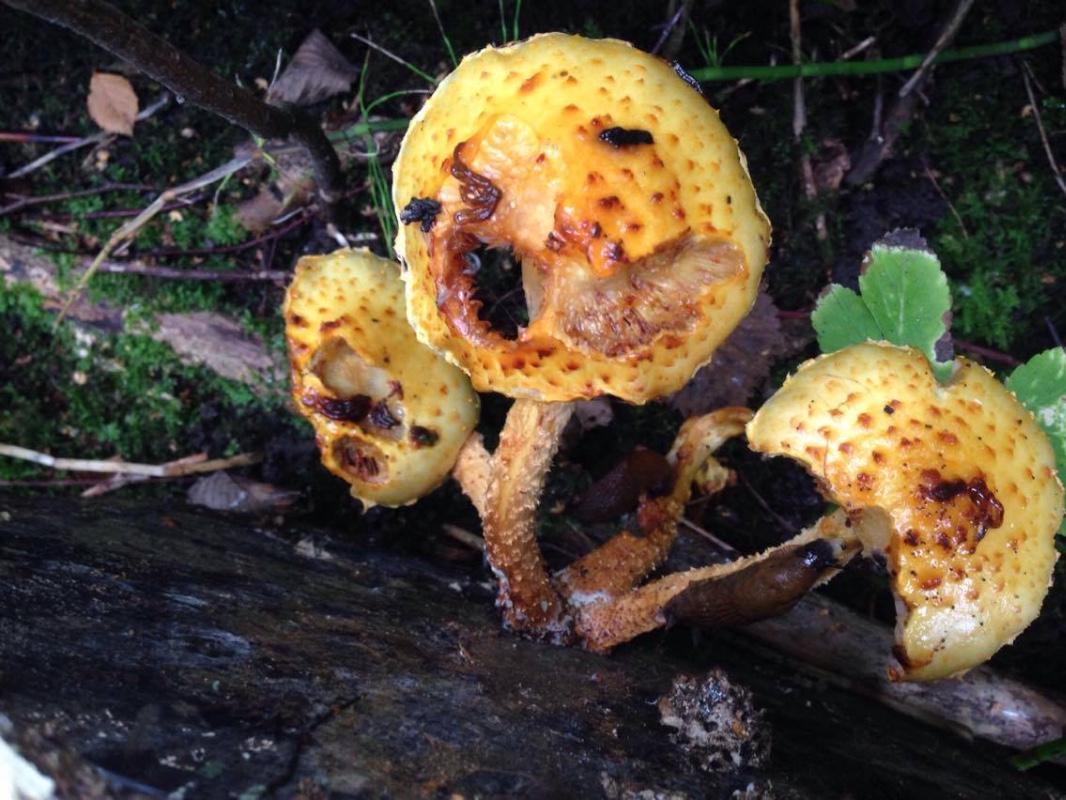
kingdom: Fungi
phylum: Basidiomycota
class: Agaricomycetes
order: Agaricales
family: Strophariaceae
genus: Pholiota
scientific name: Pholiota
